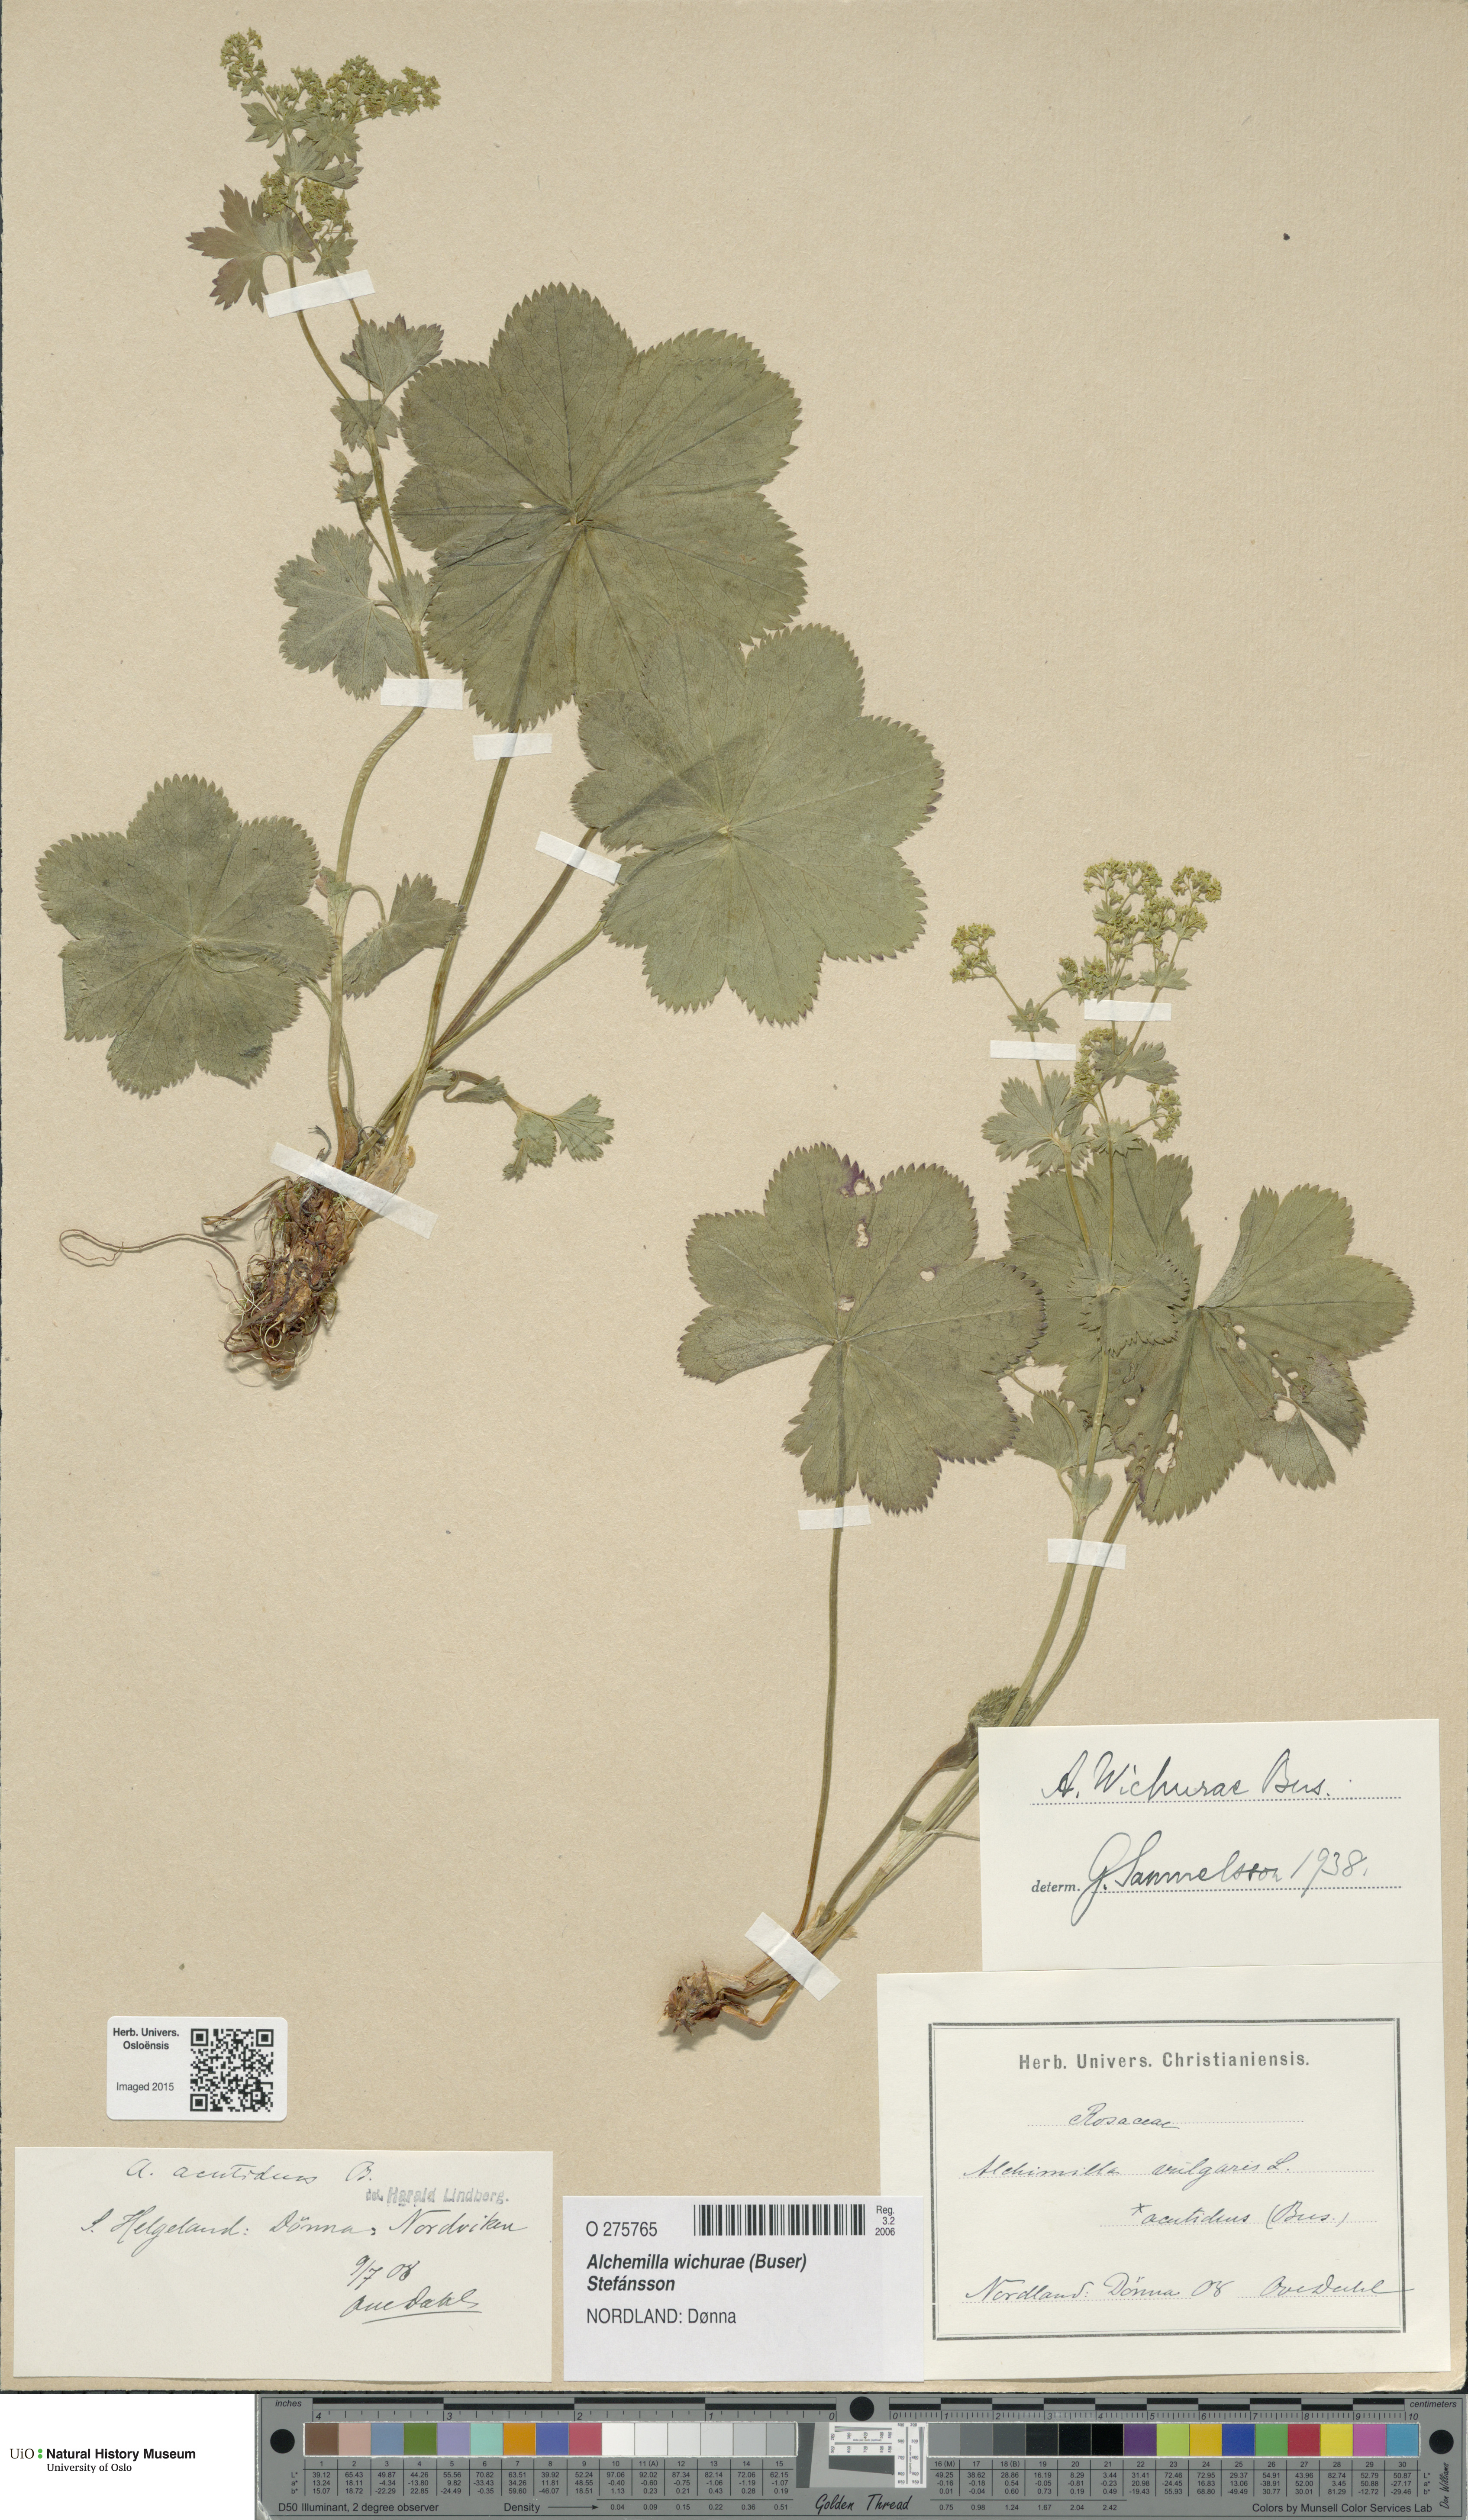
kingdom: Plantae
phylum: Tracheophyta
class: Magnoliopsida
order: Rosales
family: Rosaceae
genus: Alchemilla
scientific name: Alchemilla wichurae
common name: Rock lady's mantle
